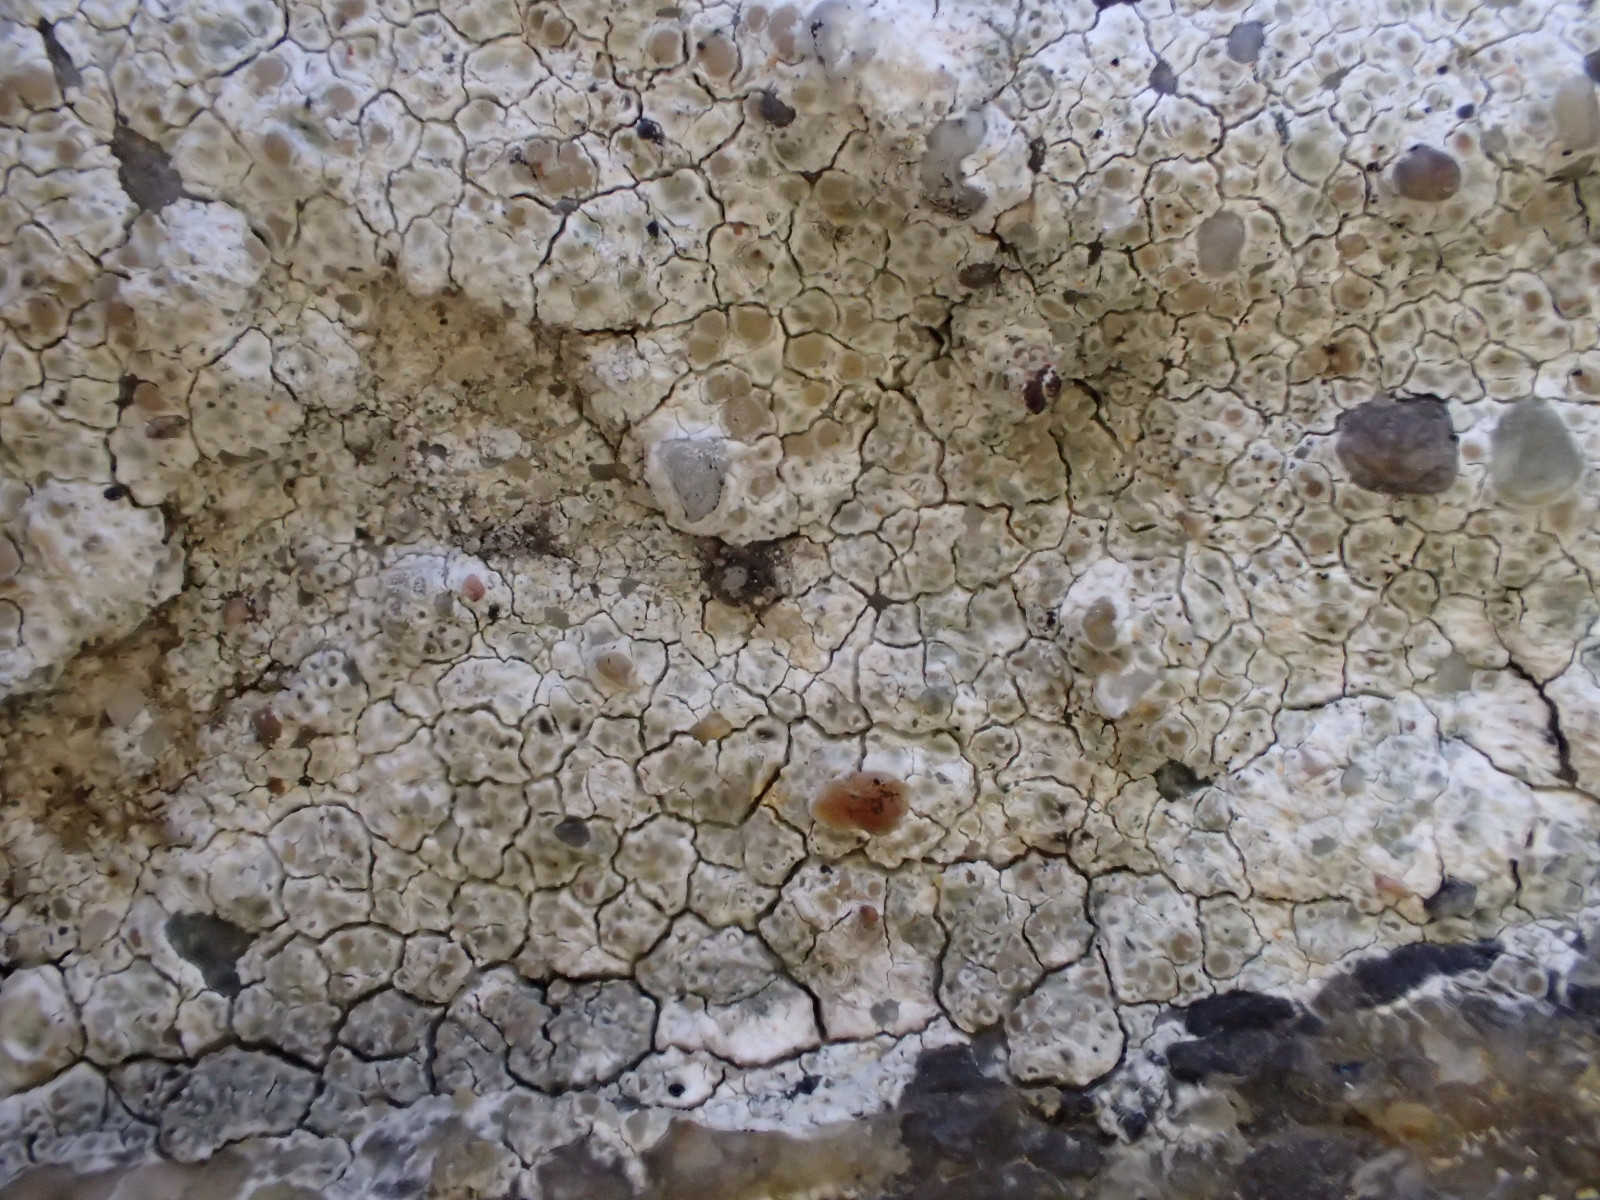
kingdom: Fungi
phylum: Ascomycota
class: Lecanoromycetes
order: Lecanorales
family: Lecanoraceae
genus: Polyozosia
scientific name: Polyozosia albescens
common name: cement-kantskivelav
